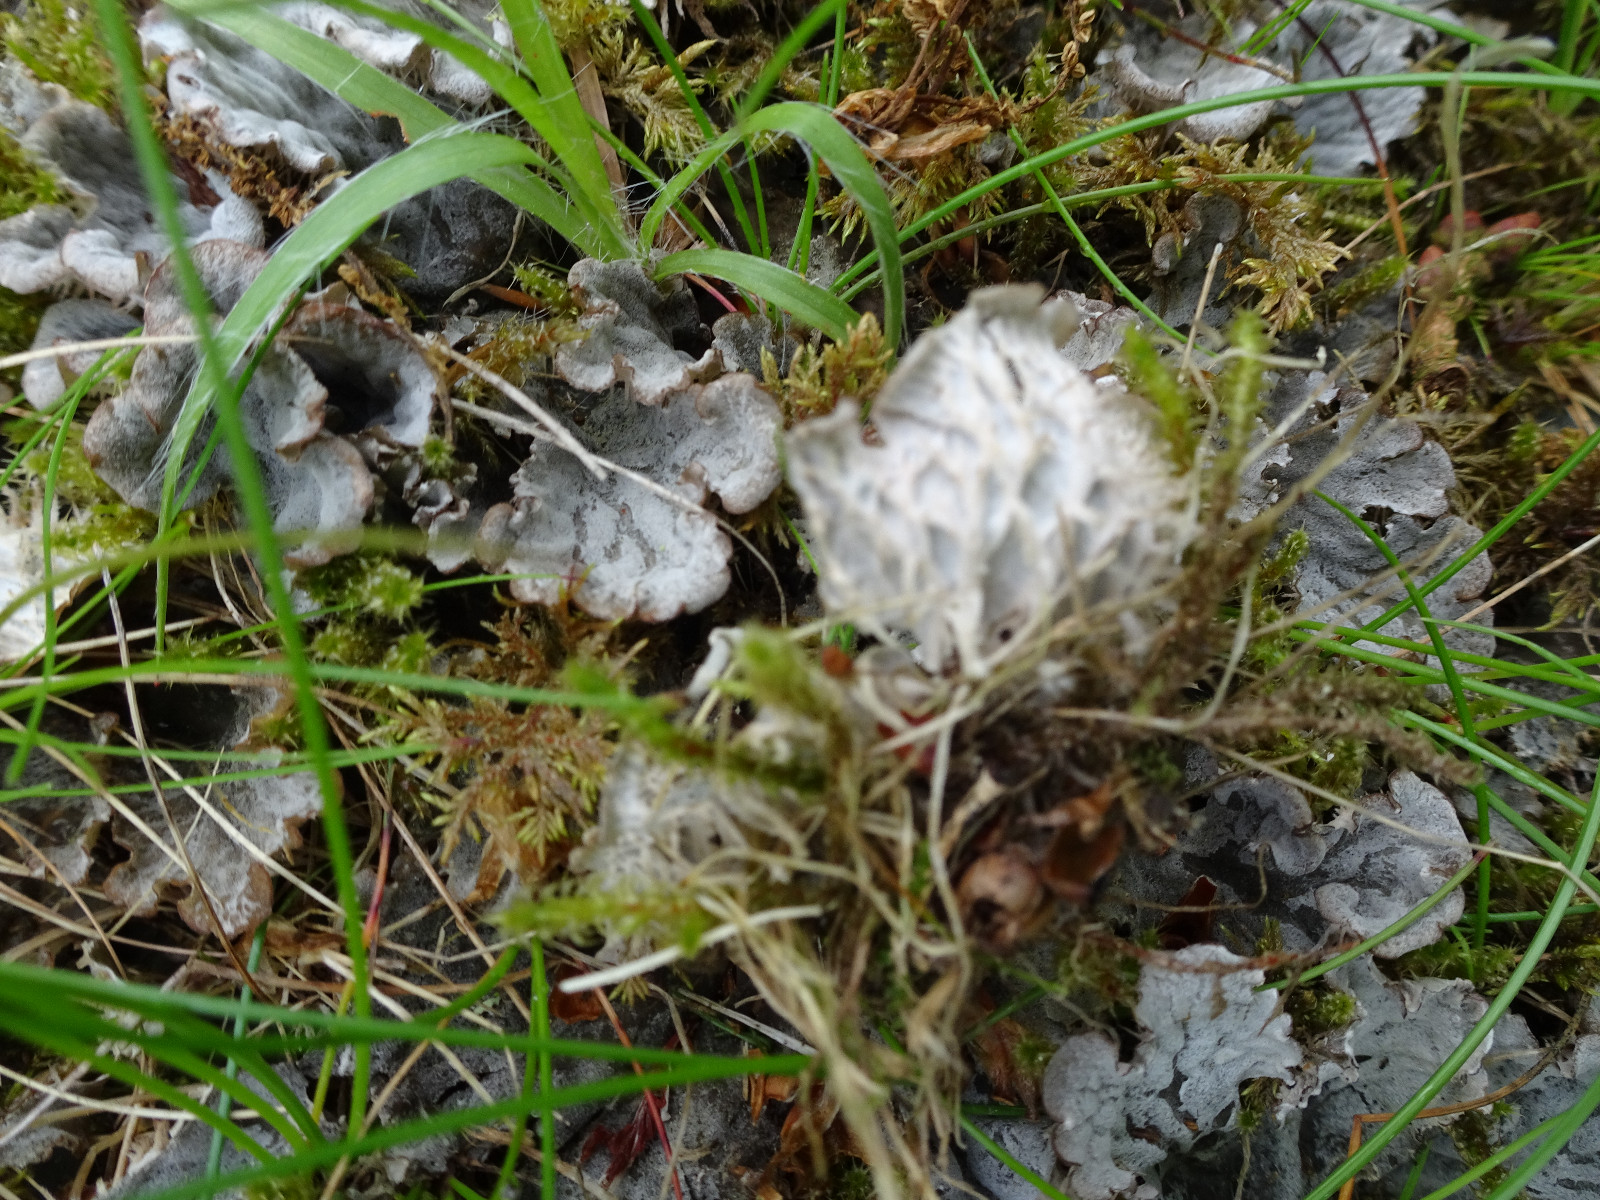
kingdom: Fungi
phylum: Ascomycota
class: Lecanoromycetes
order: Peltigerales
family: Peltigeraceae
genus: Peltigera
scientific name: Peltigera membranacea
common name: tynd skjoldlav
